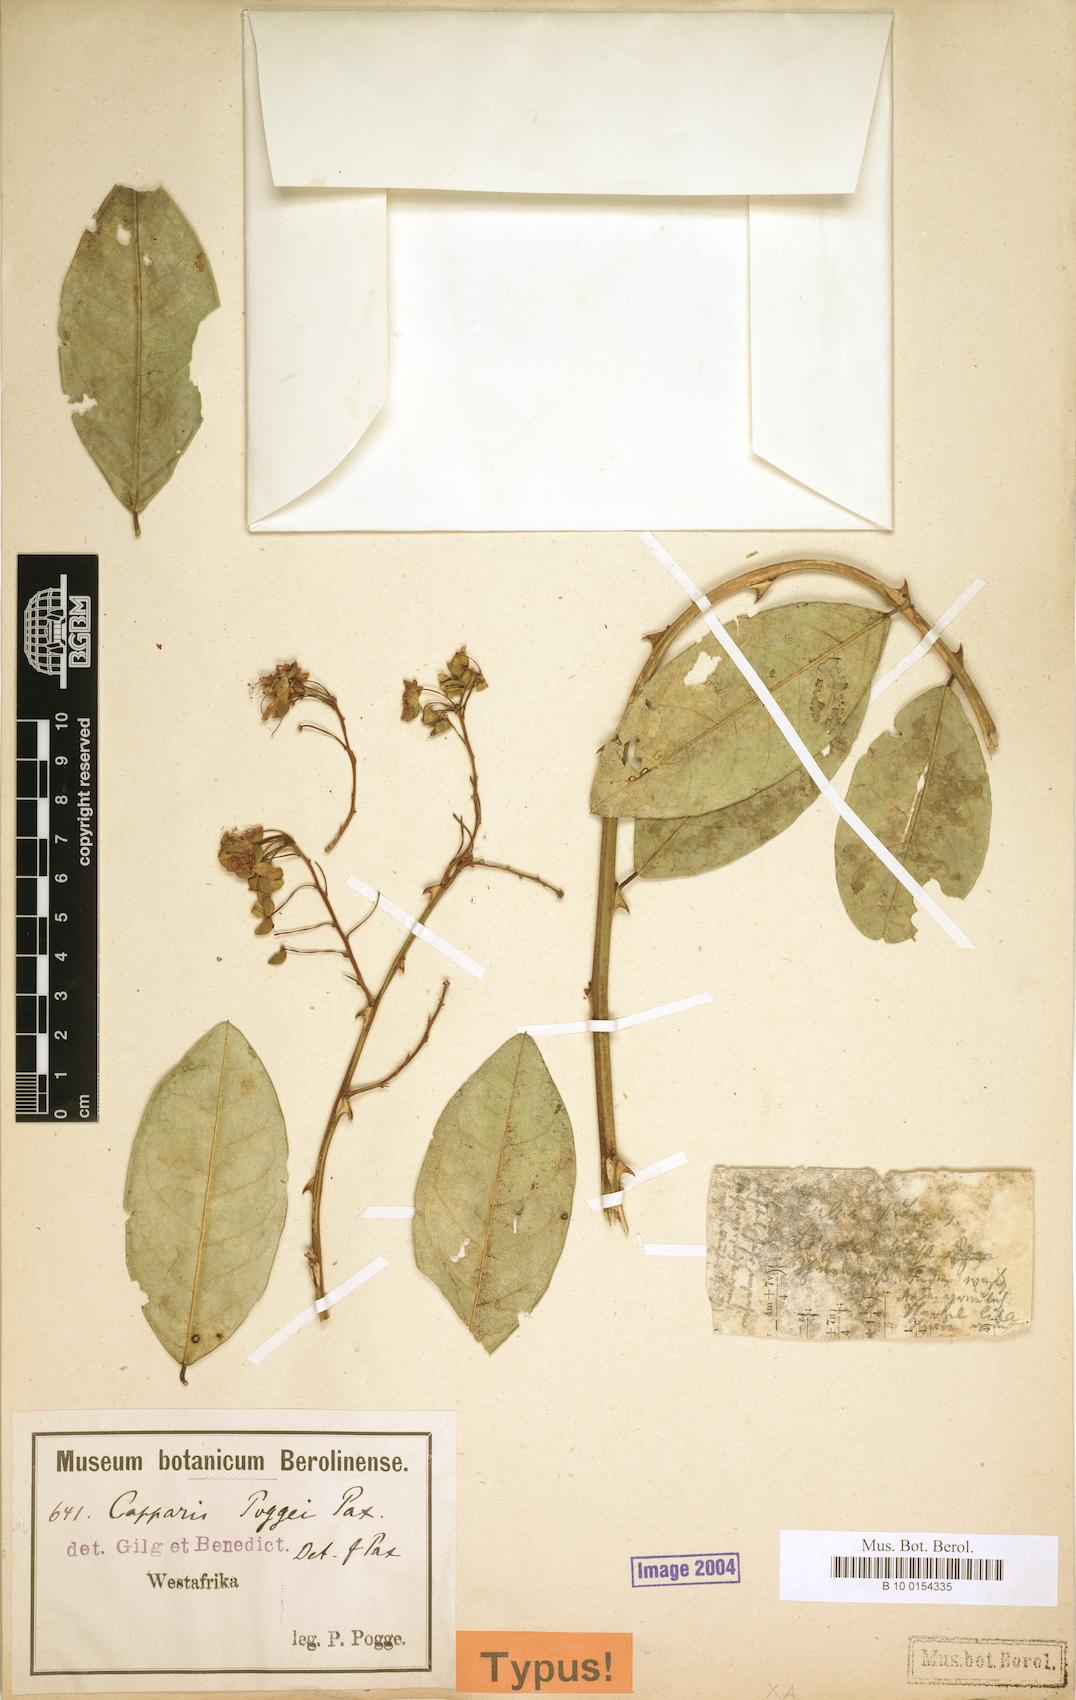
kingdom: Plantae
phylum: Tracheophyta
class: Magnoliopsida
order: Brassicales
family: Capparaceae
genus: Capparis
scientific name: Capparis poggei
